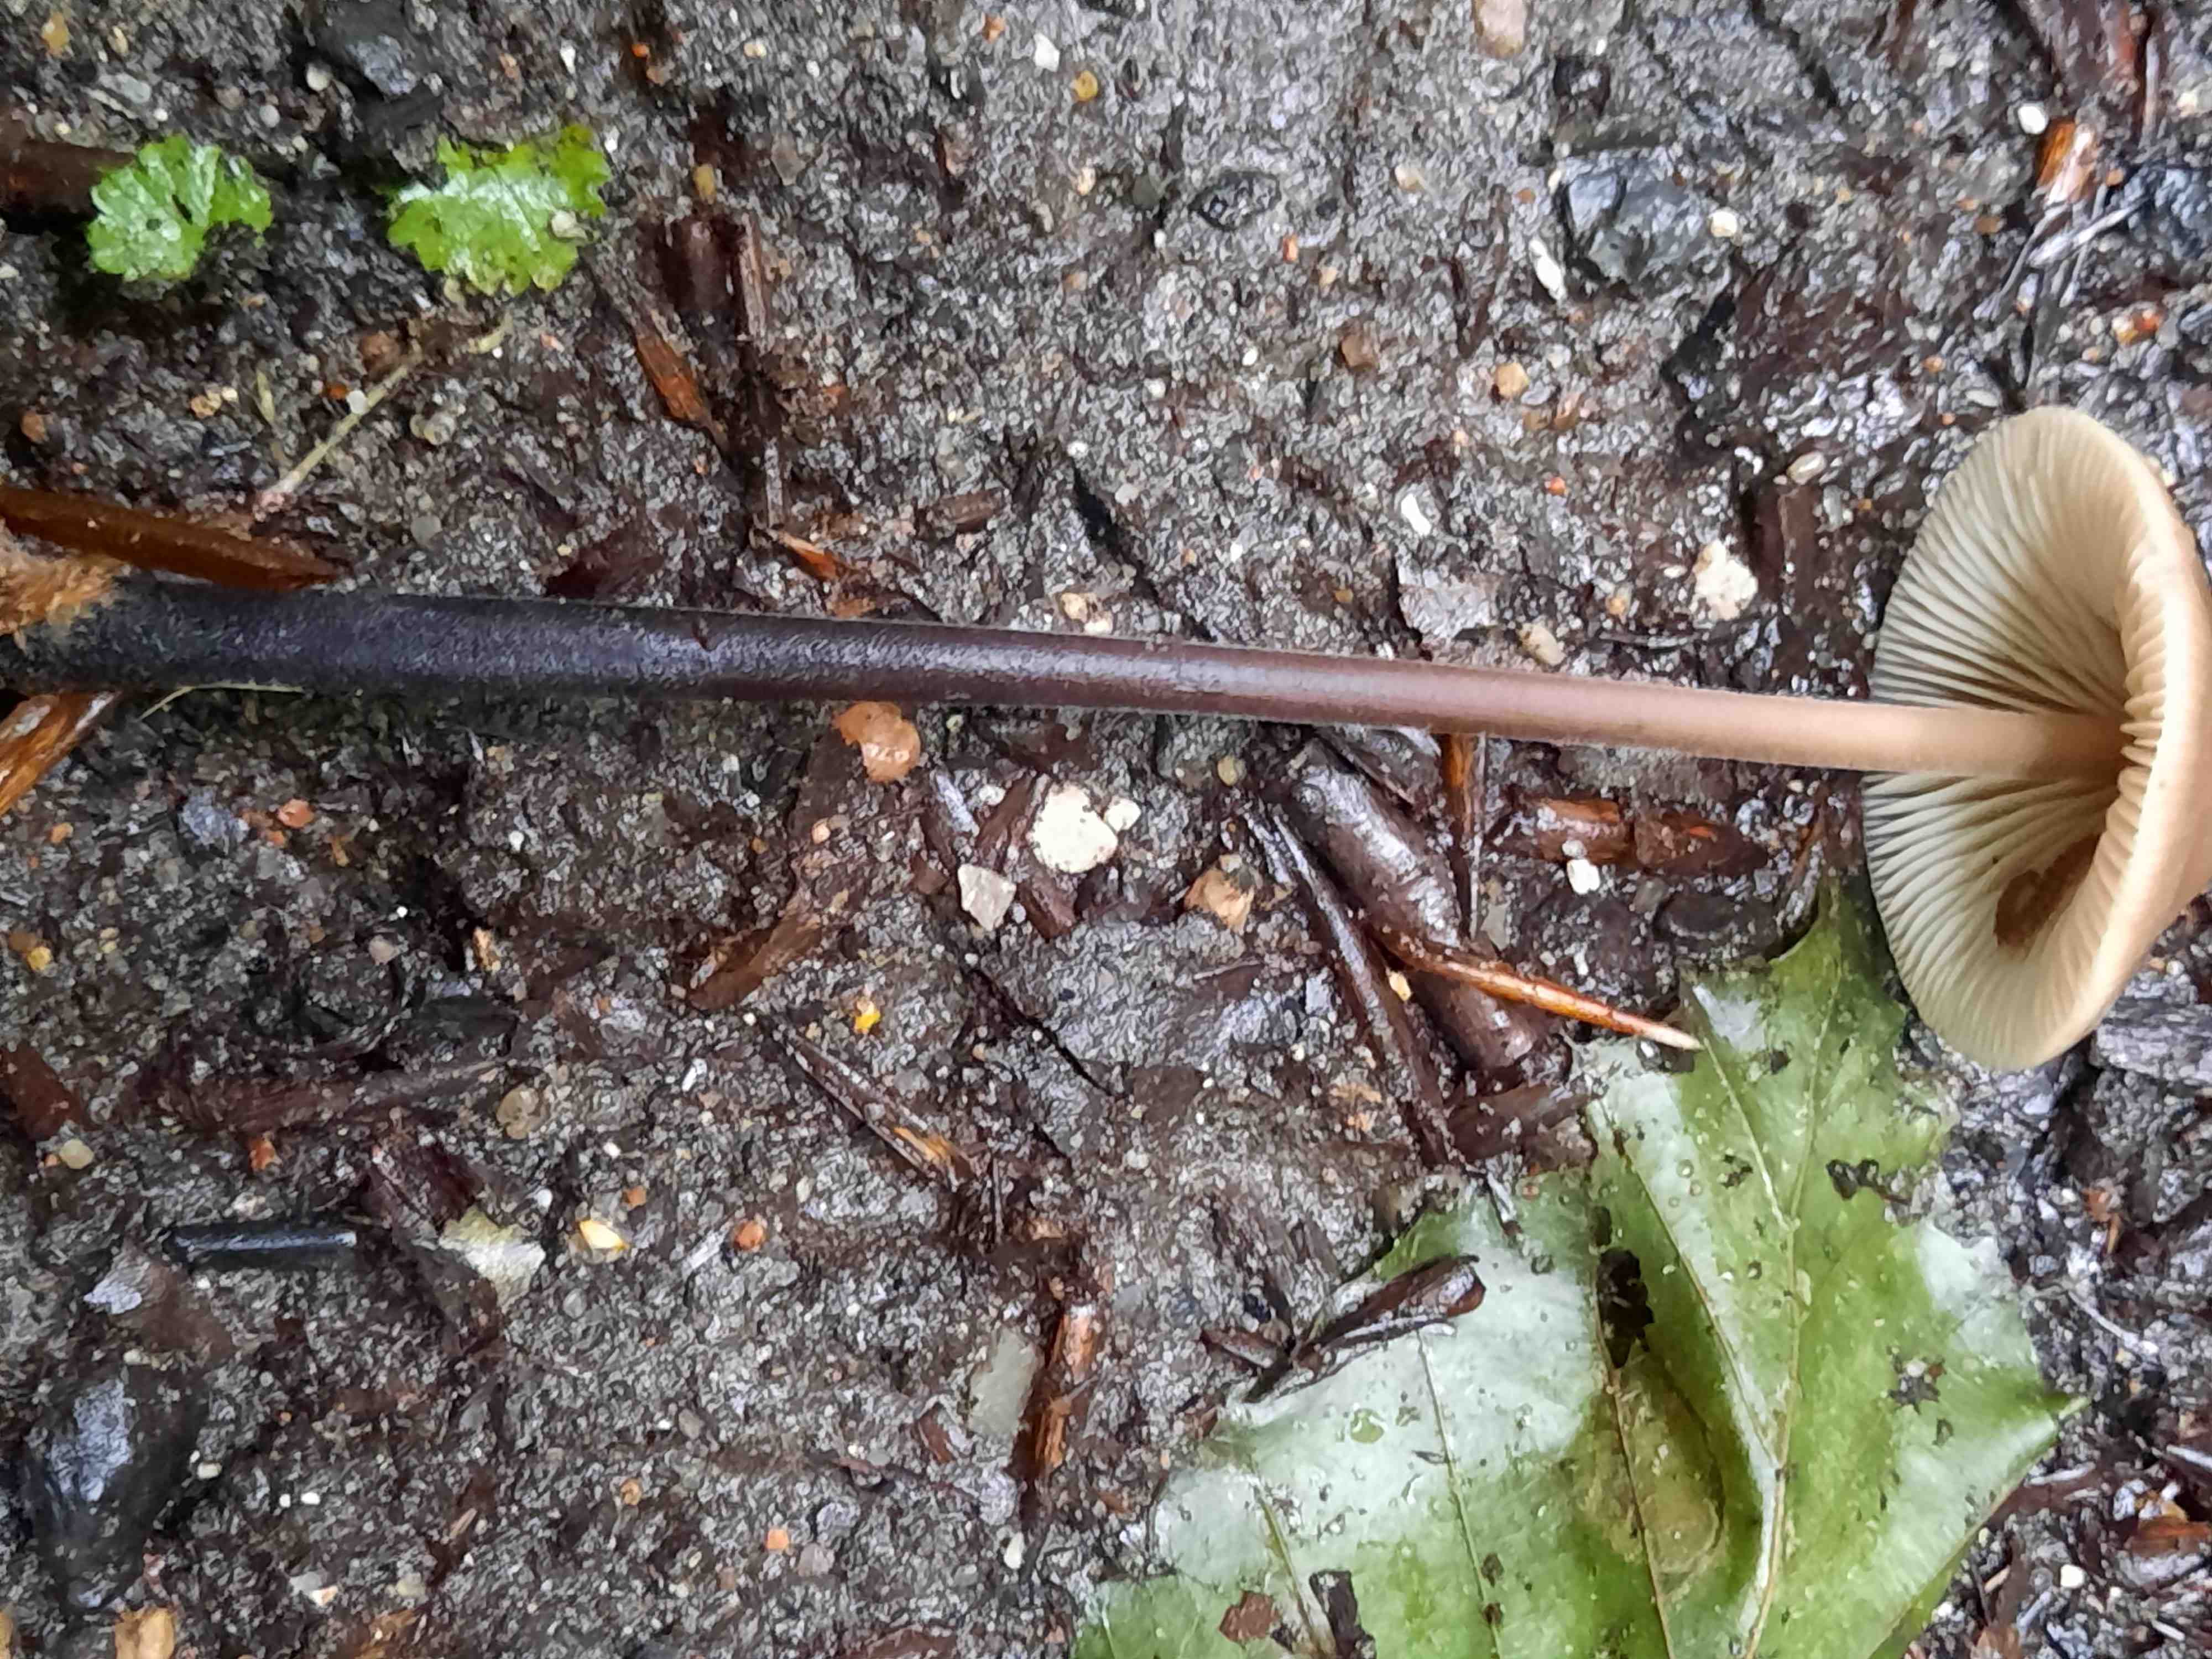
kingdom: Fungi
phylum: Basidiomycota
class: Agaricomycetes
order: Agaricales
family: Omphalotaceae
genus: Mycetinis
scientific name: Mycetinis alliaceus
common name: stor løghat
